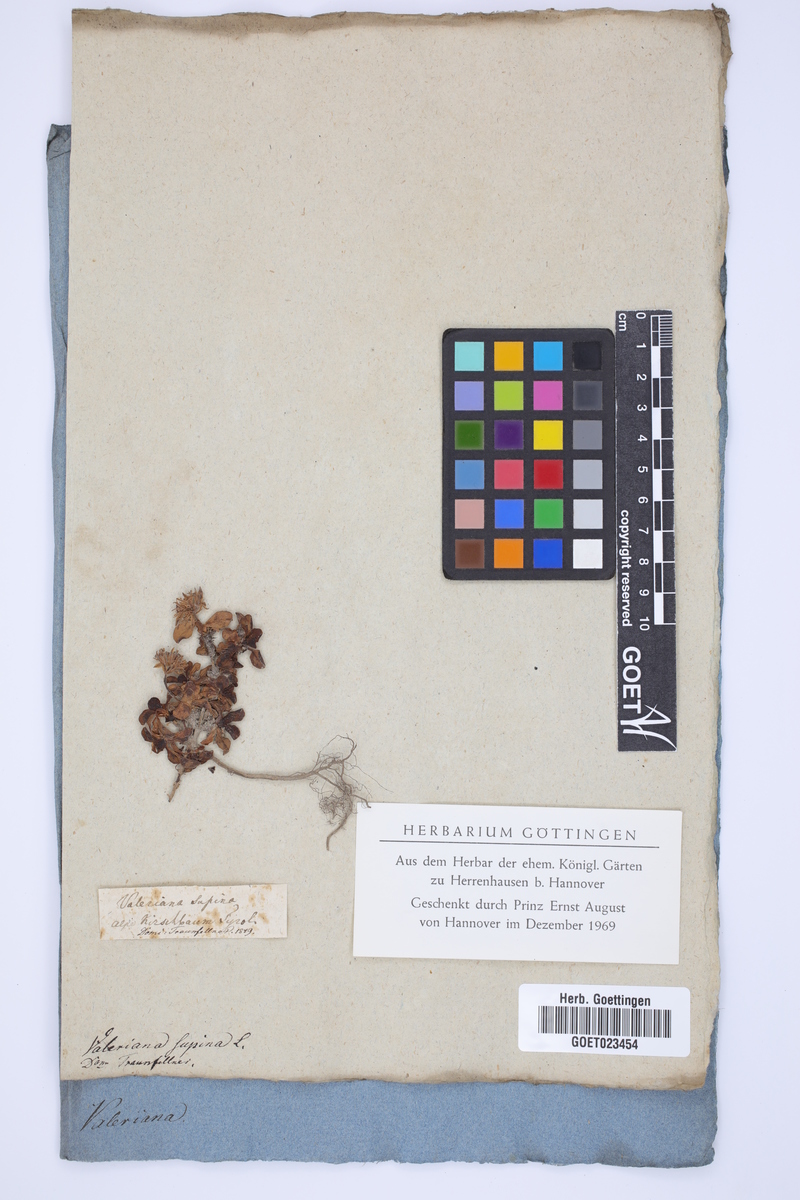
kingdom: Plantae
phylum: Tracheophyta
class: Magnoliopsida
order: Dipsacales
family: Caprifoliaceae
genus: Valeriana
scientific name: Valeriana supina
